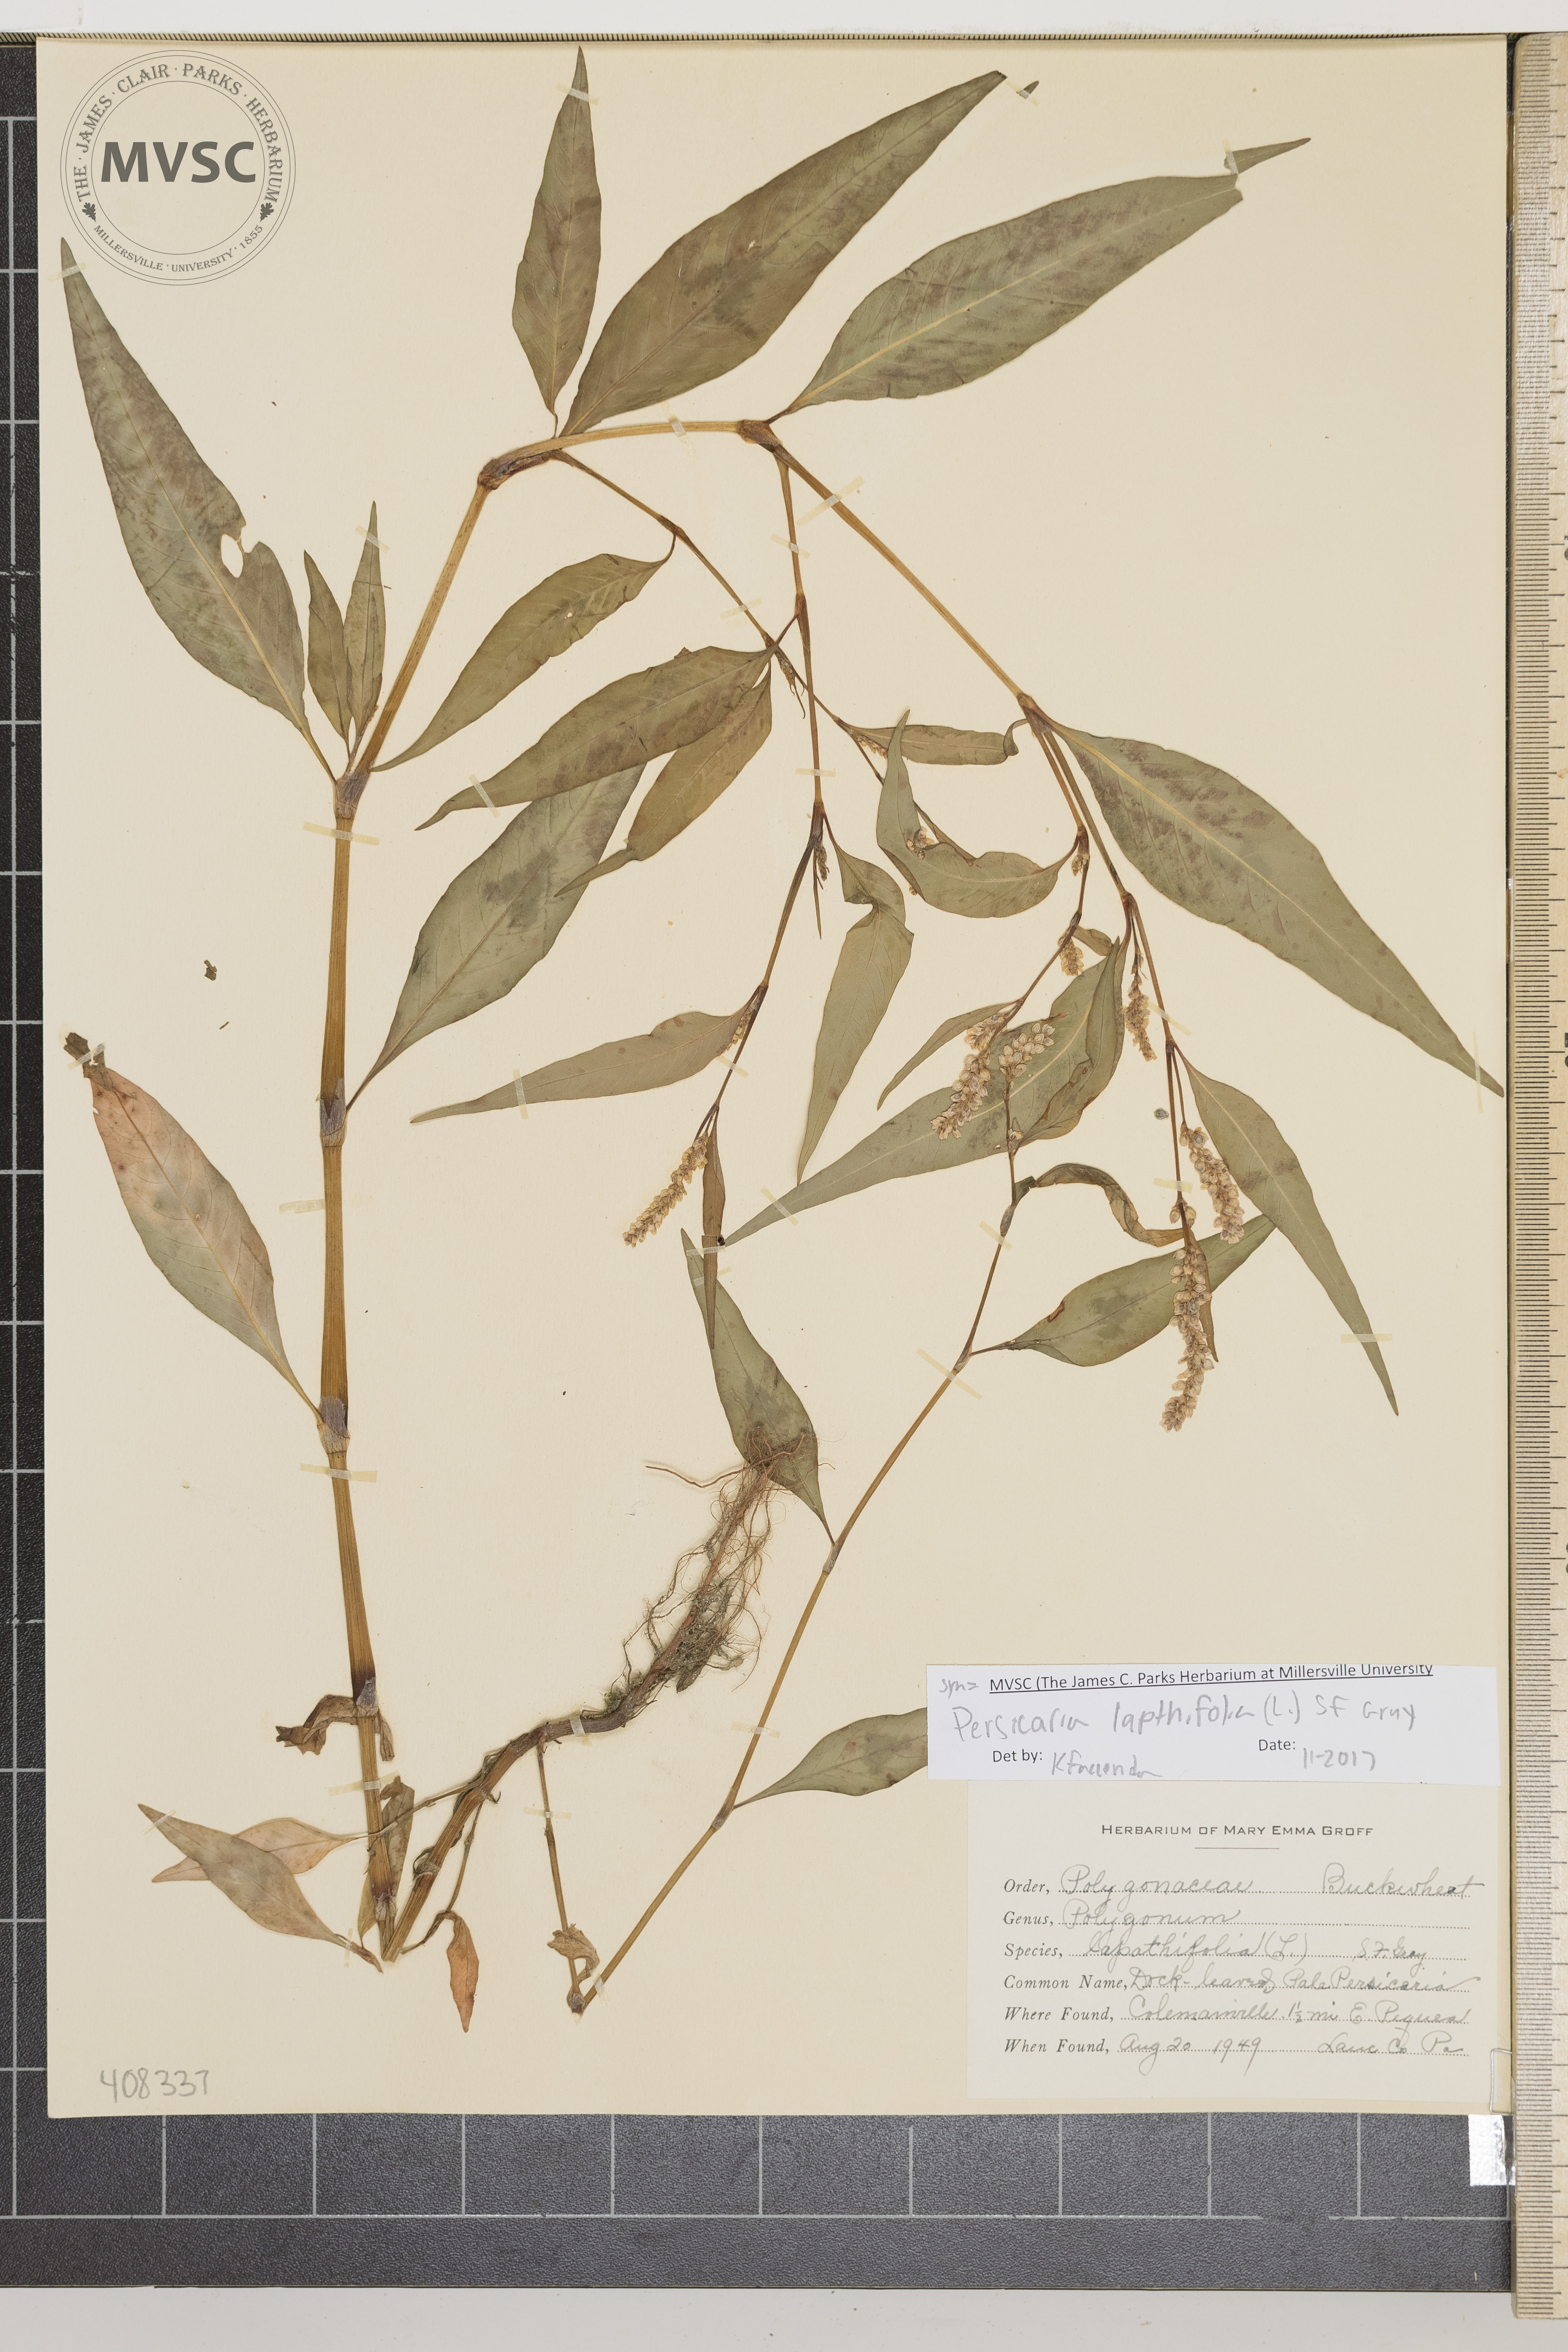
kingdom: Plantae
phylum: Tracheophyta
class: Magnoliopsida
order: Caryophyllales
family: Polygonaceae
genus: Persicaria
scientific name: Persicaria lapathifolia
